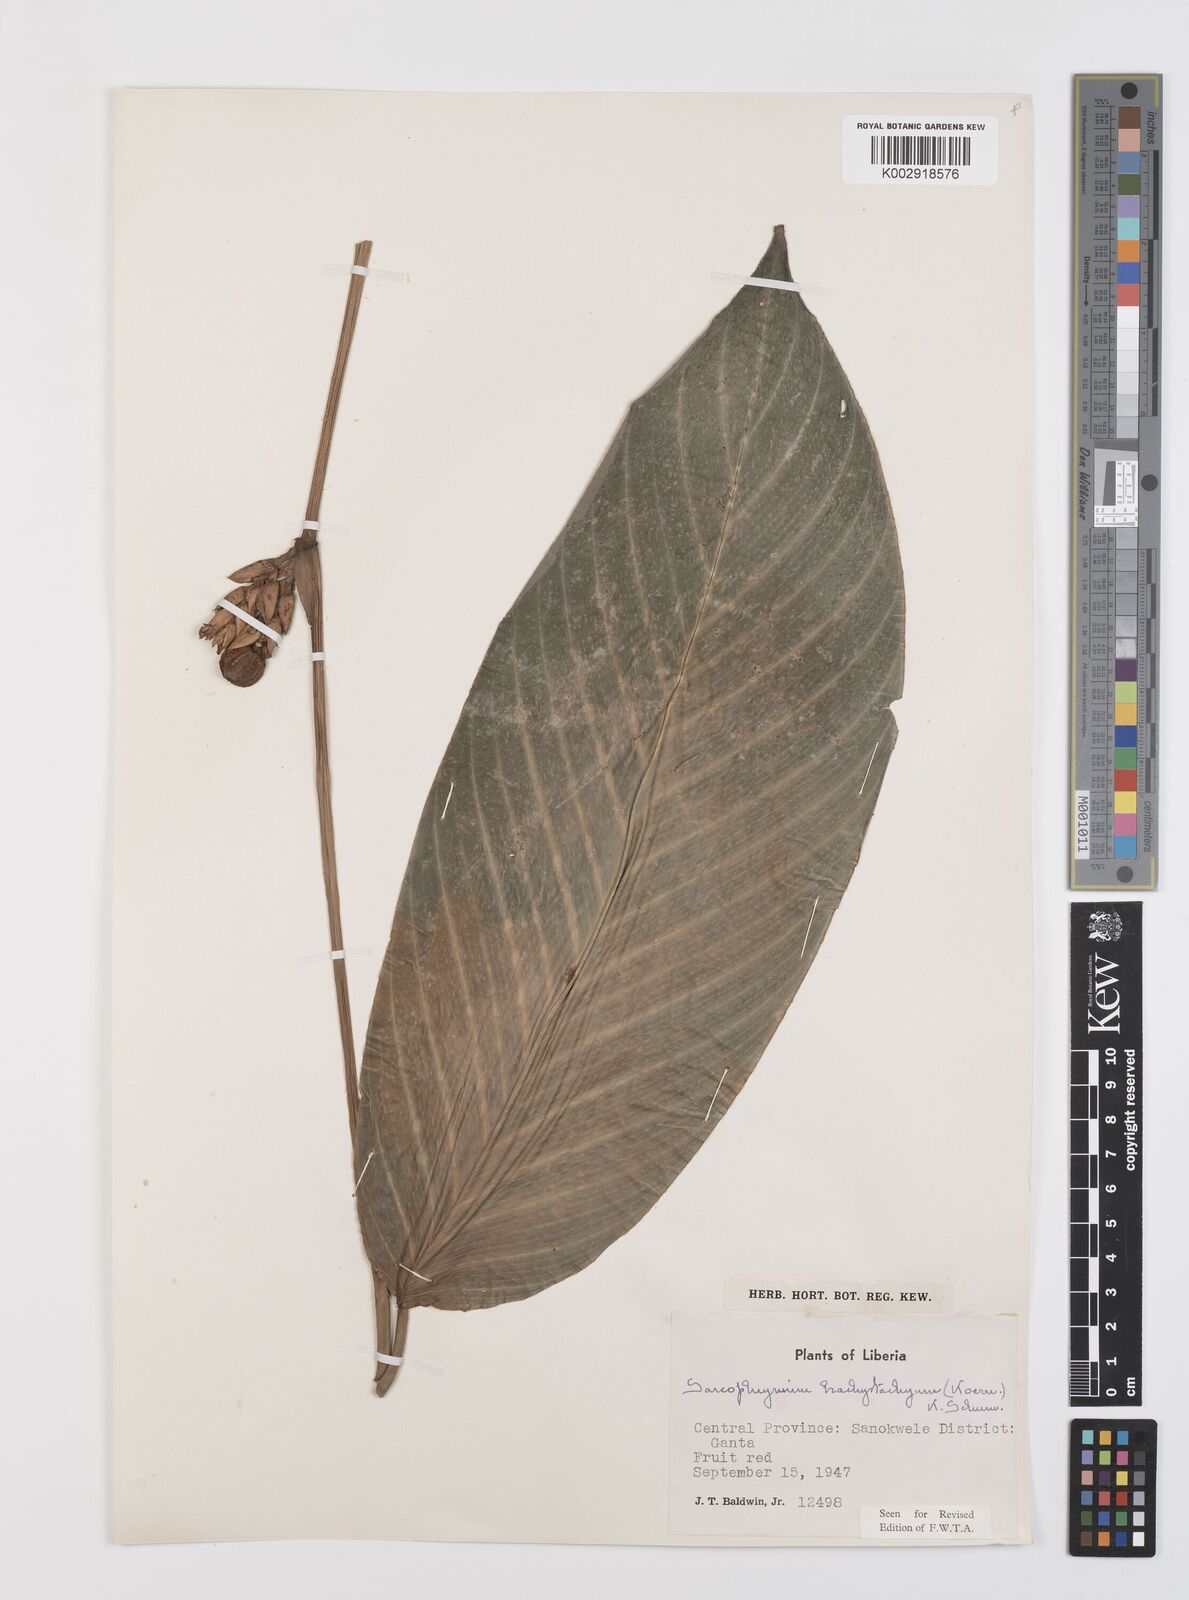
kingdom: Plantae
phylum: Tracheophyta
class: Liliopsida
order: Zingiberales
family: Marantaceae
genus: Sarcophrynium
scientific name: Sarcophrynium brachystachyum
